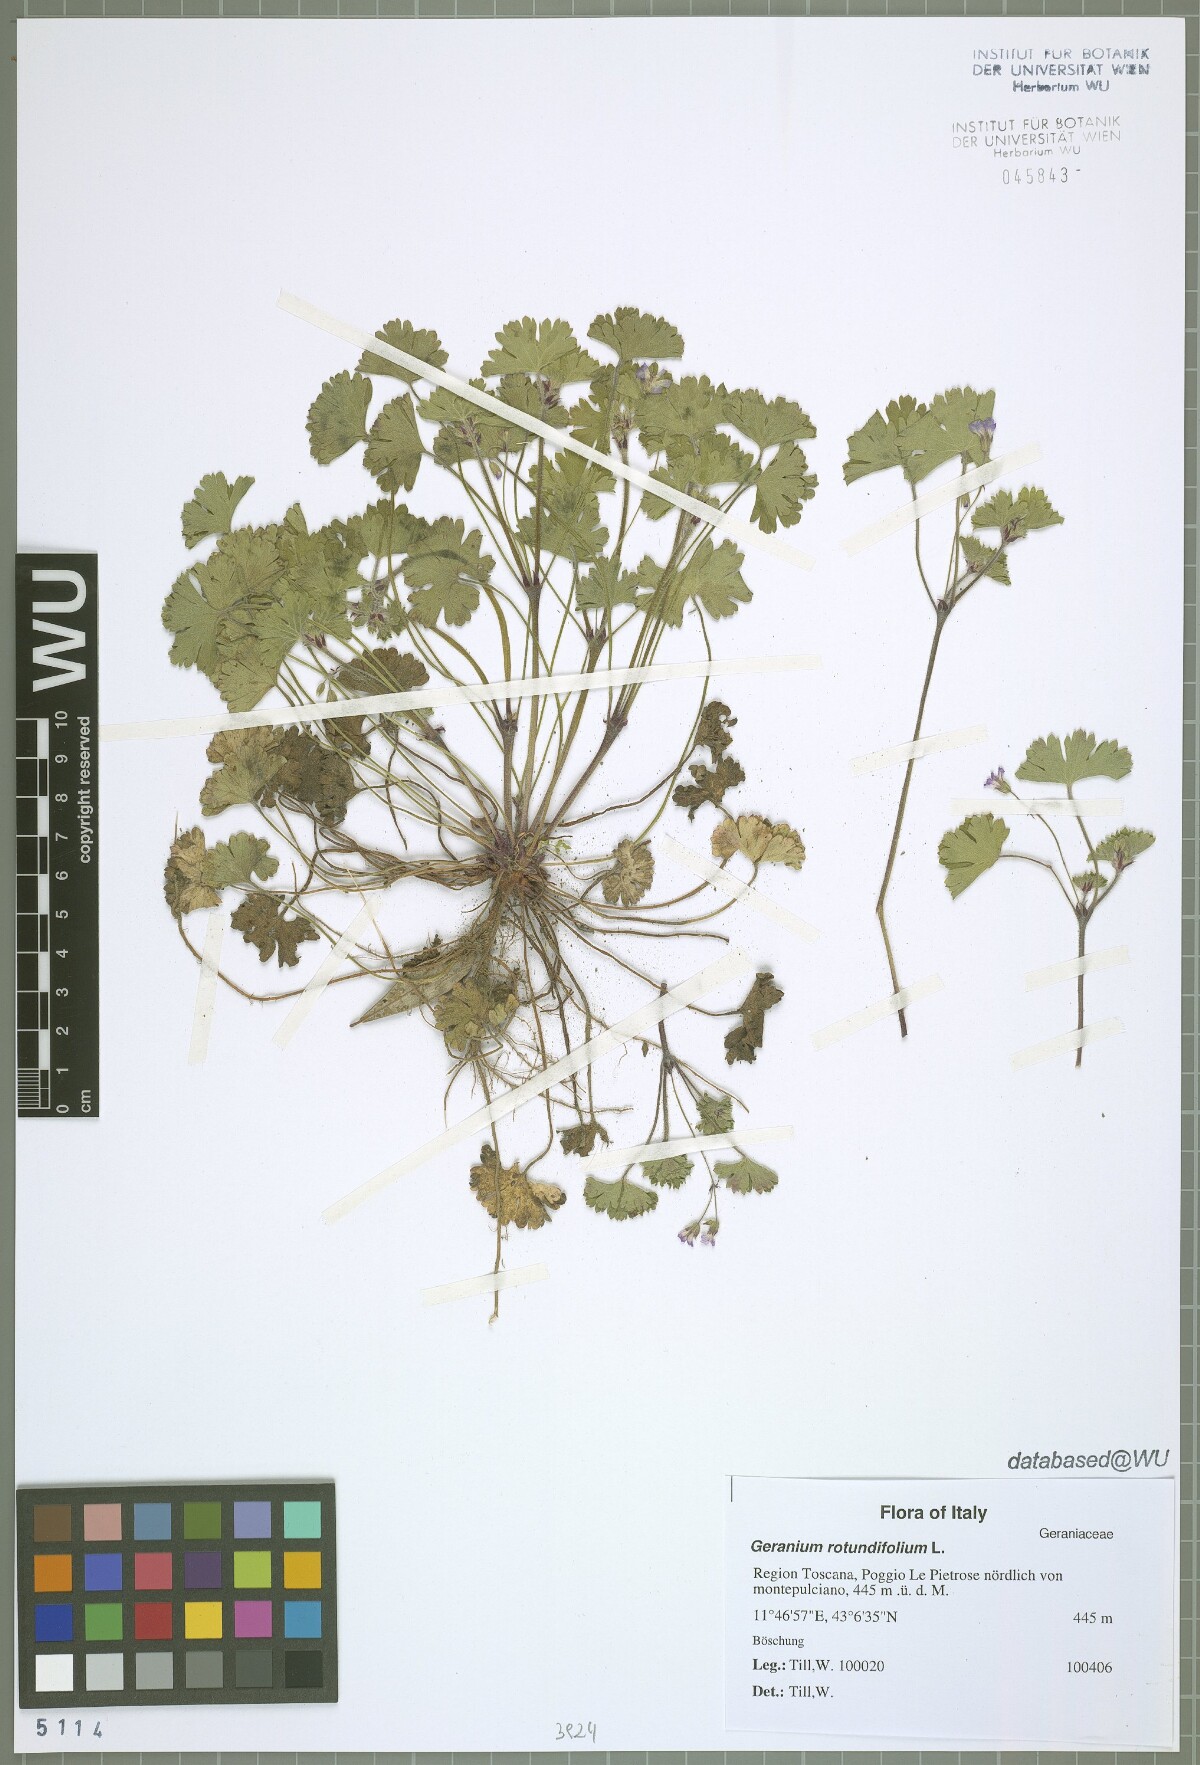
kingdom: Plantae
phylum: Tracheophyta
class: Magnoliopsida
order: Geraniales
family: Geraniaceae
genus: Geranium
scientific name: Geranium rotundifolium
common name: Round-leaved crane's-bill
